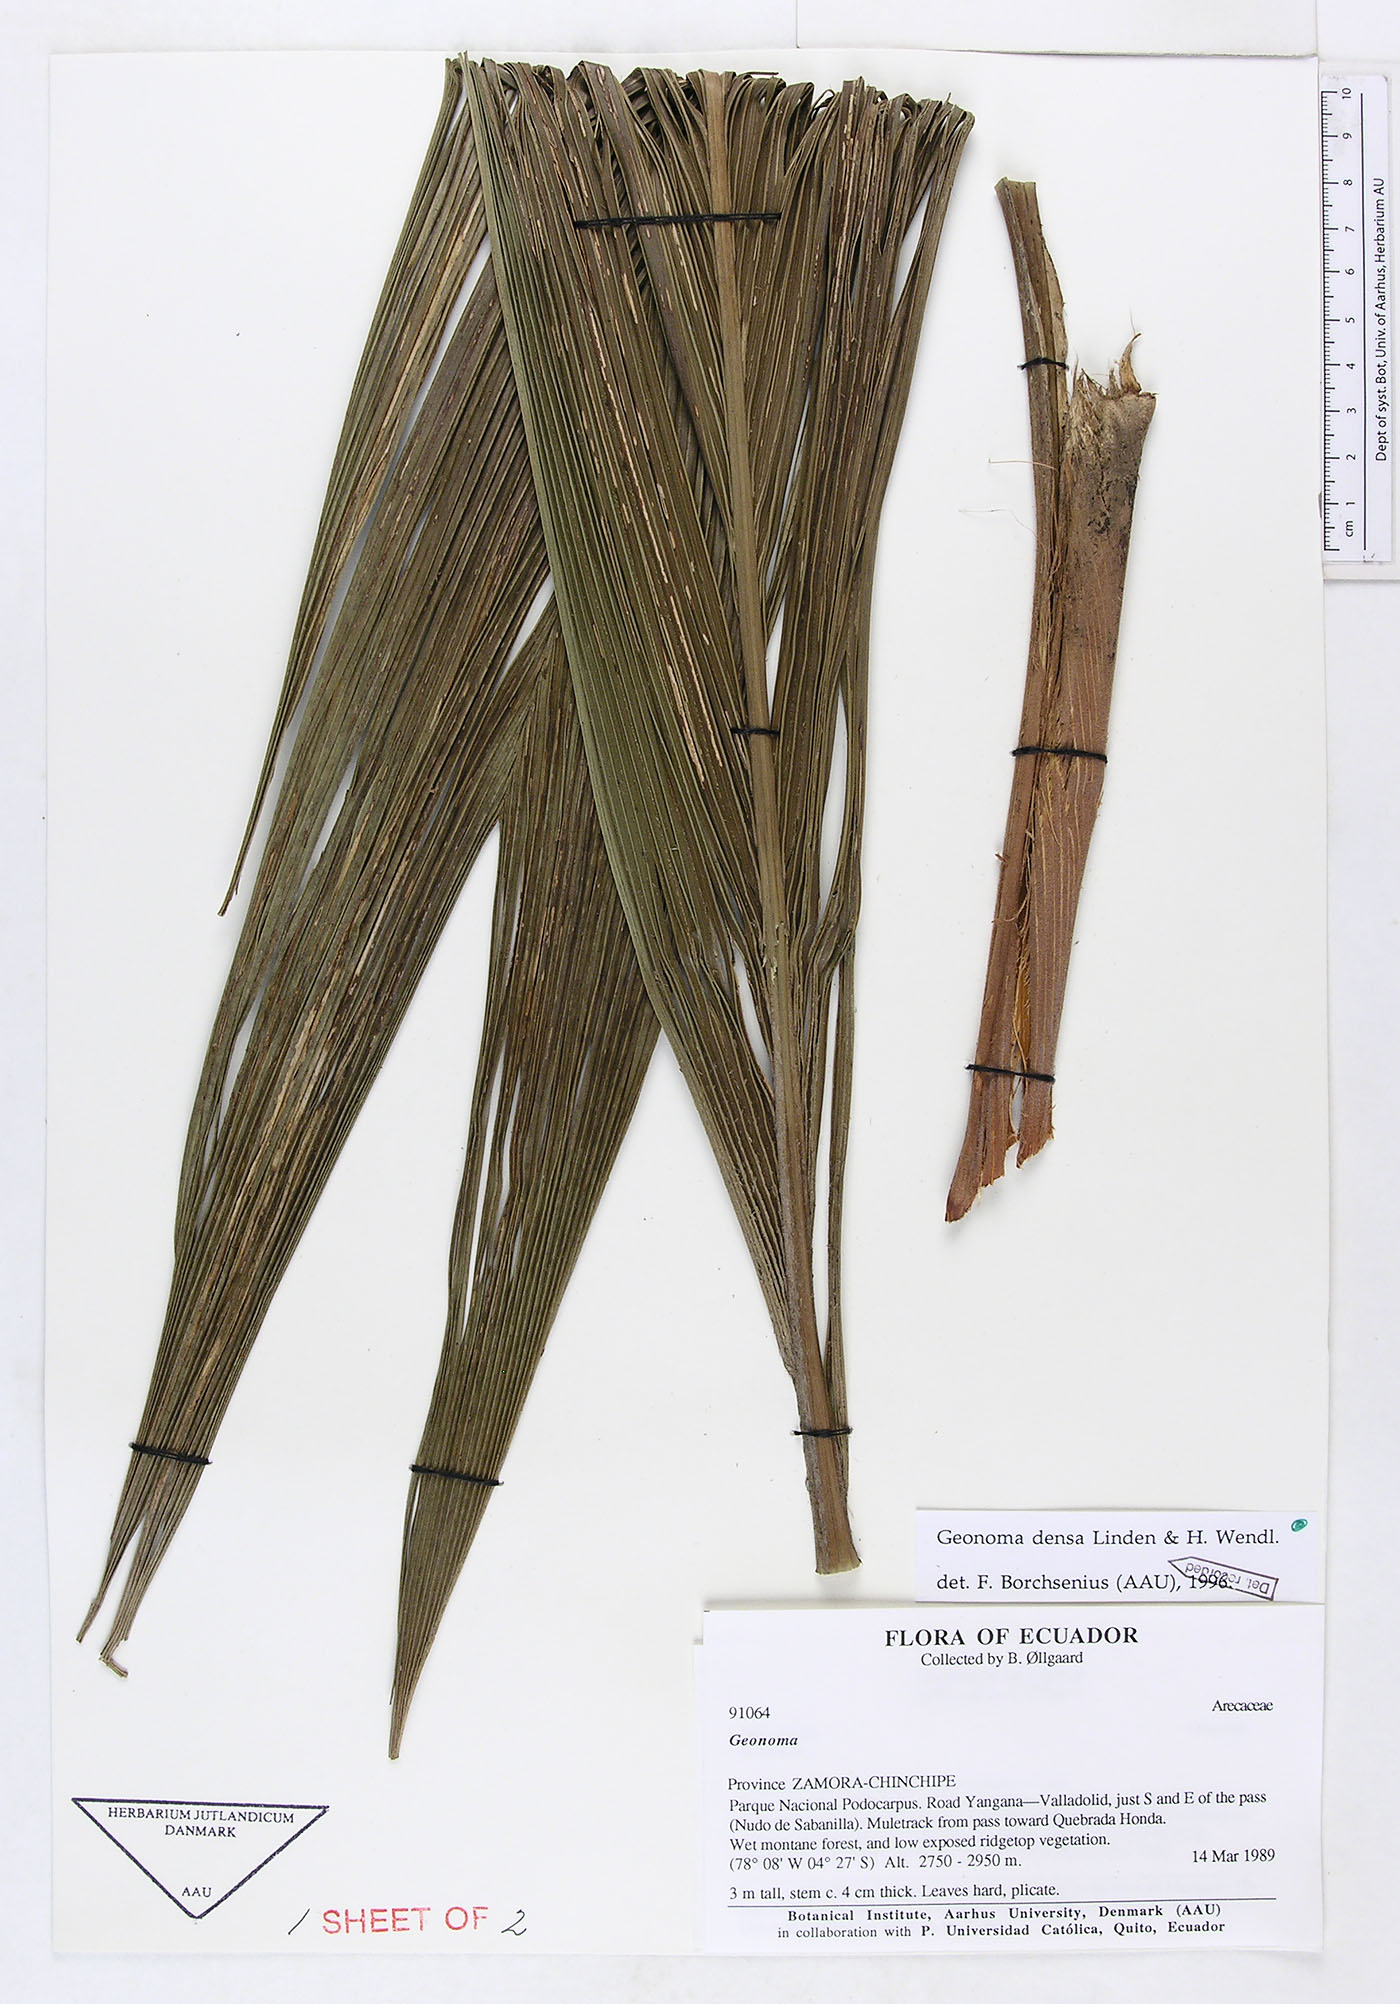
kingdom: Plantae
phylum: Tracheophyta
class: Liliopsida
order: Arecales
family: Arecaceae
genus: Geonoma
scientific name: Geonoma undata
